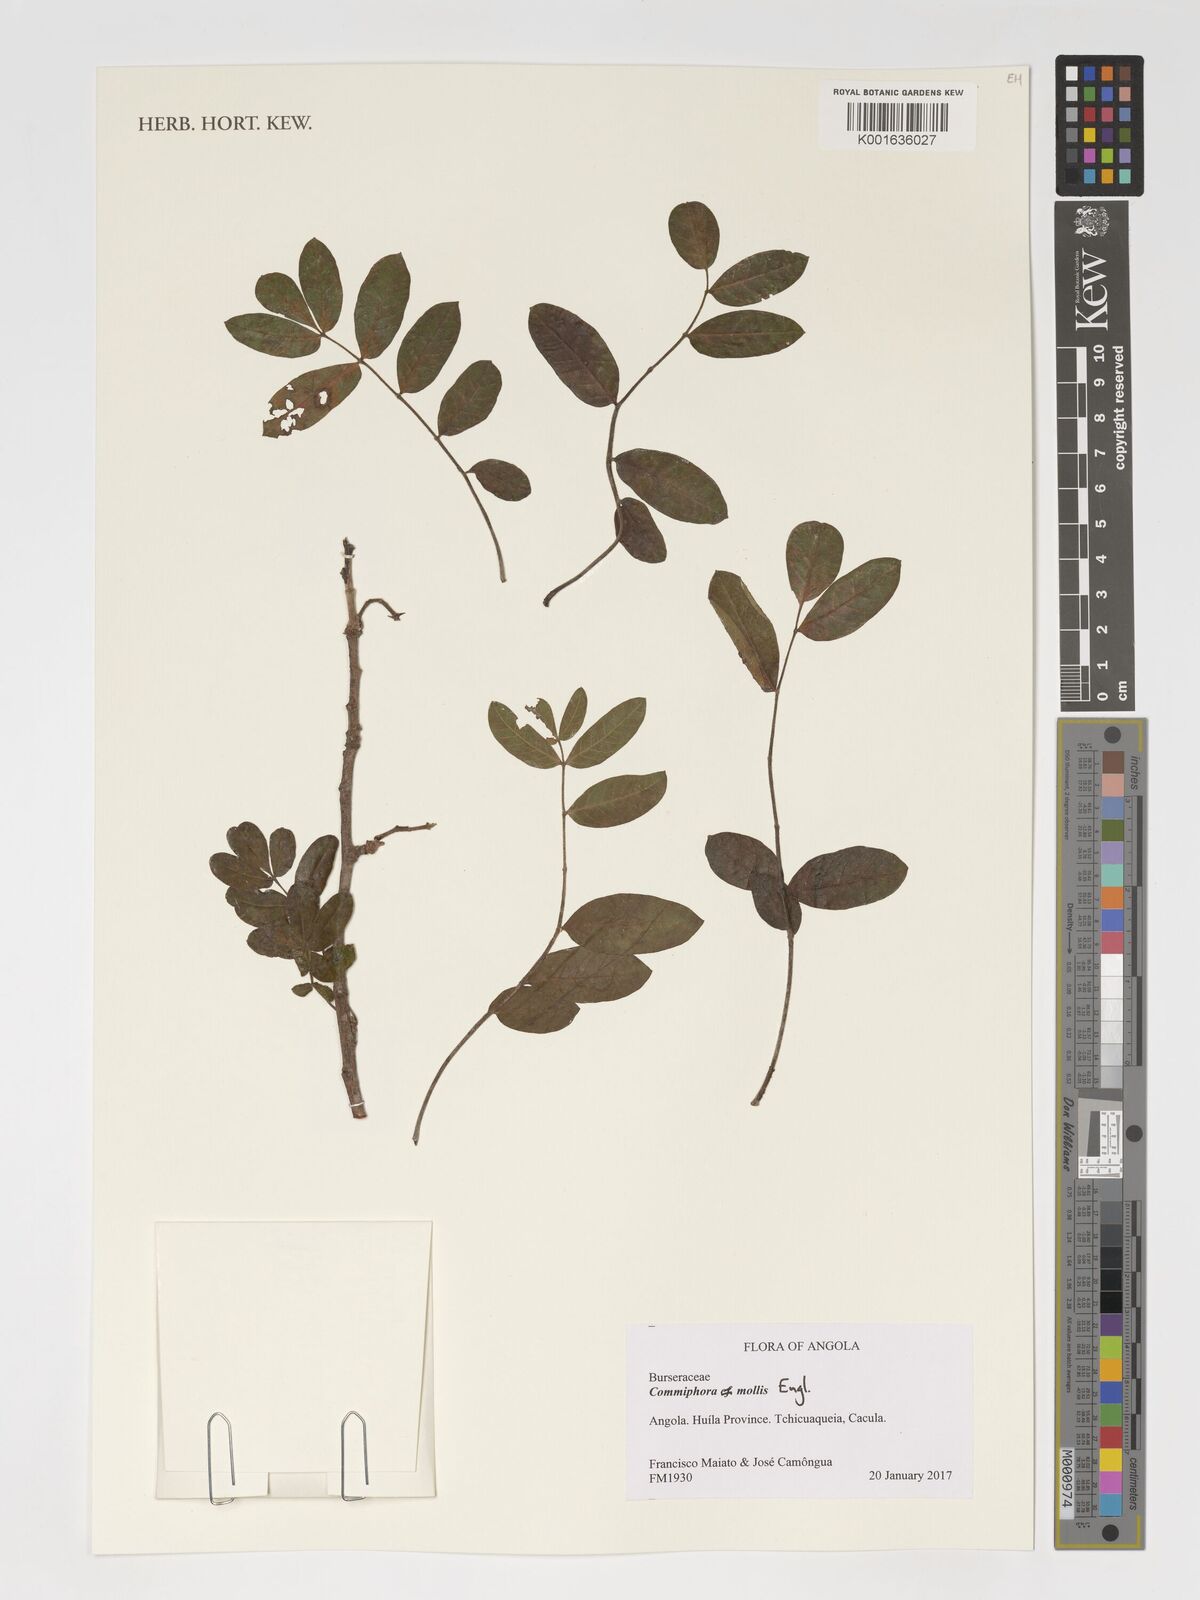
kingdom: Plantae
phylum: Tracheophyta
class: Magnoliopsida
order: Sapindales
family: Burseraceae
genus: Commiphora
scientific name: Commiphora mollis
